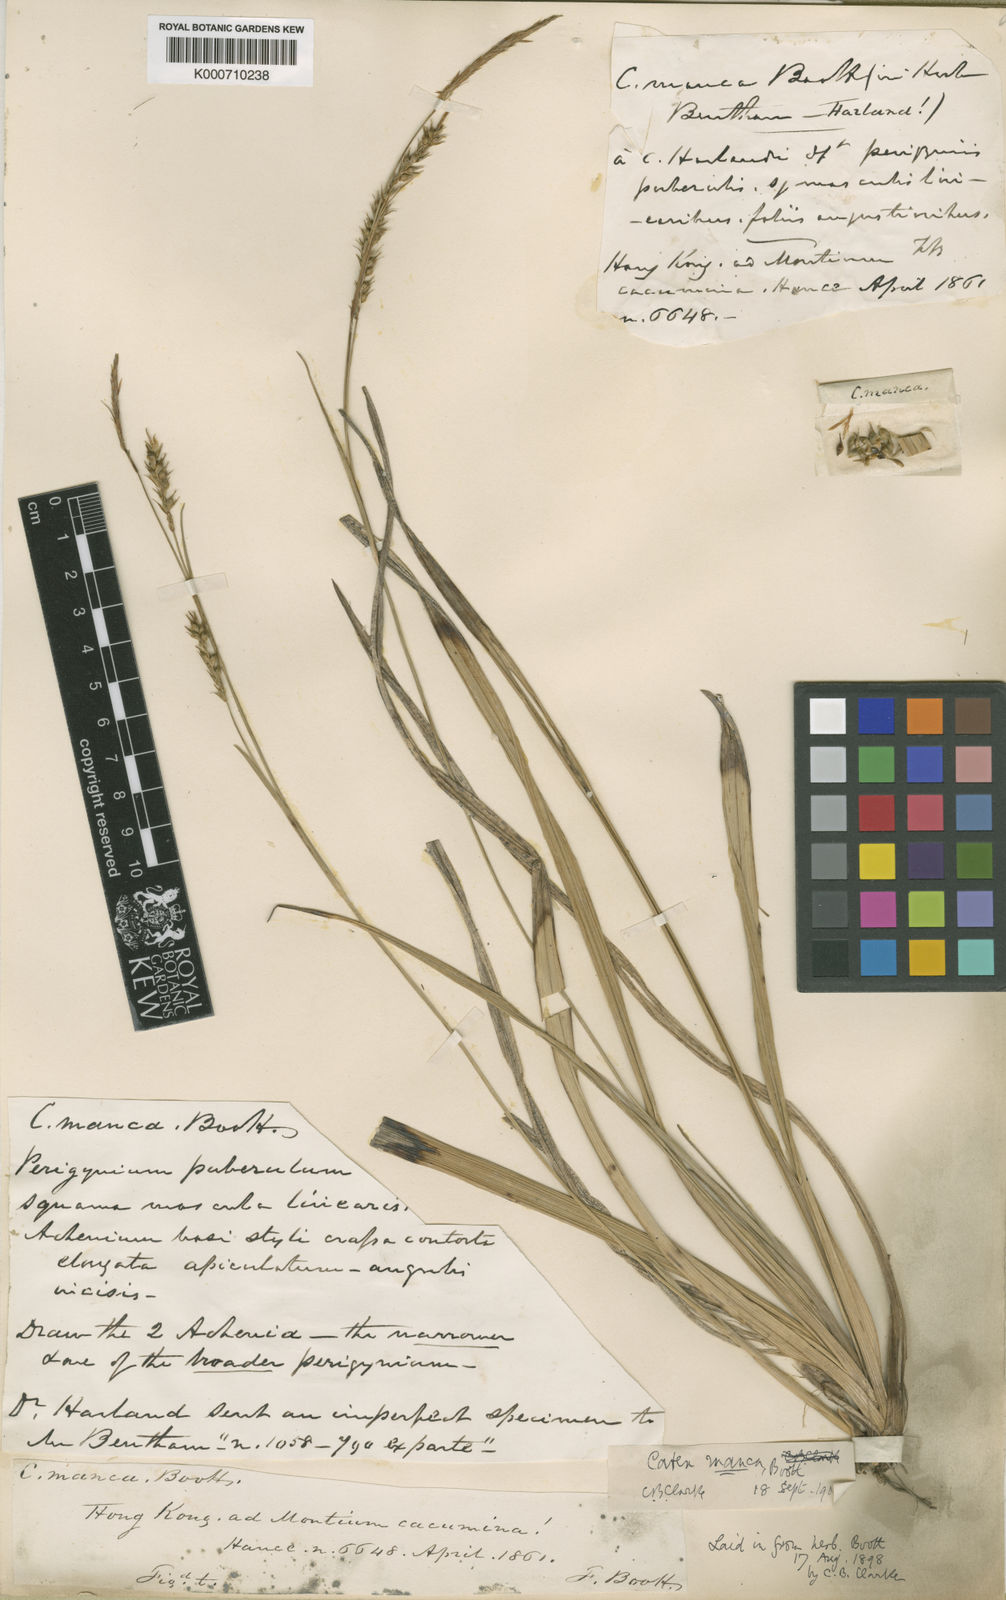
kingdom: Plantae
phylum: Tracheophyta
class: Liliopsida
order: Poales
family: Cyperaceae
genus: Carex
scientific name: Carex manca
